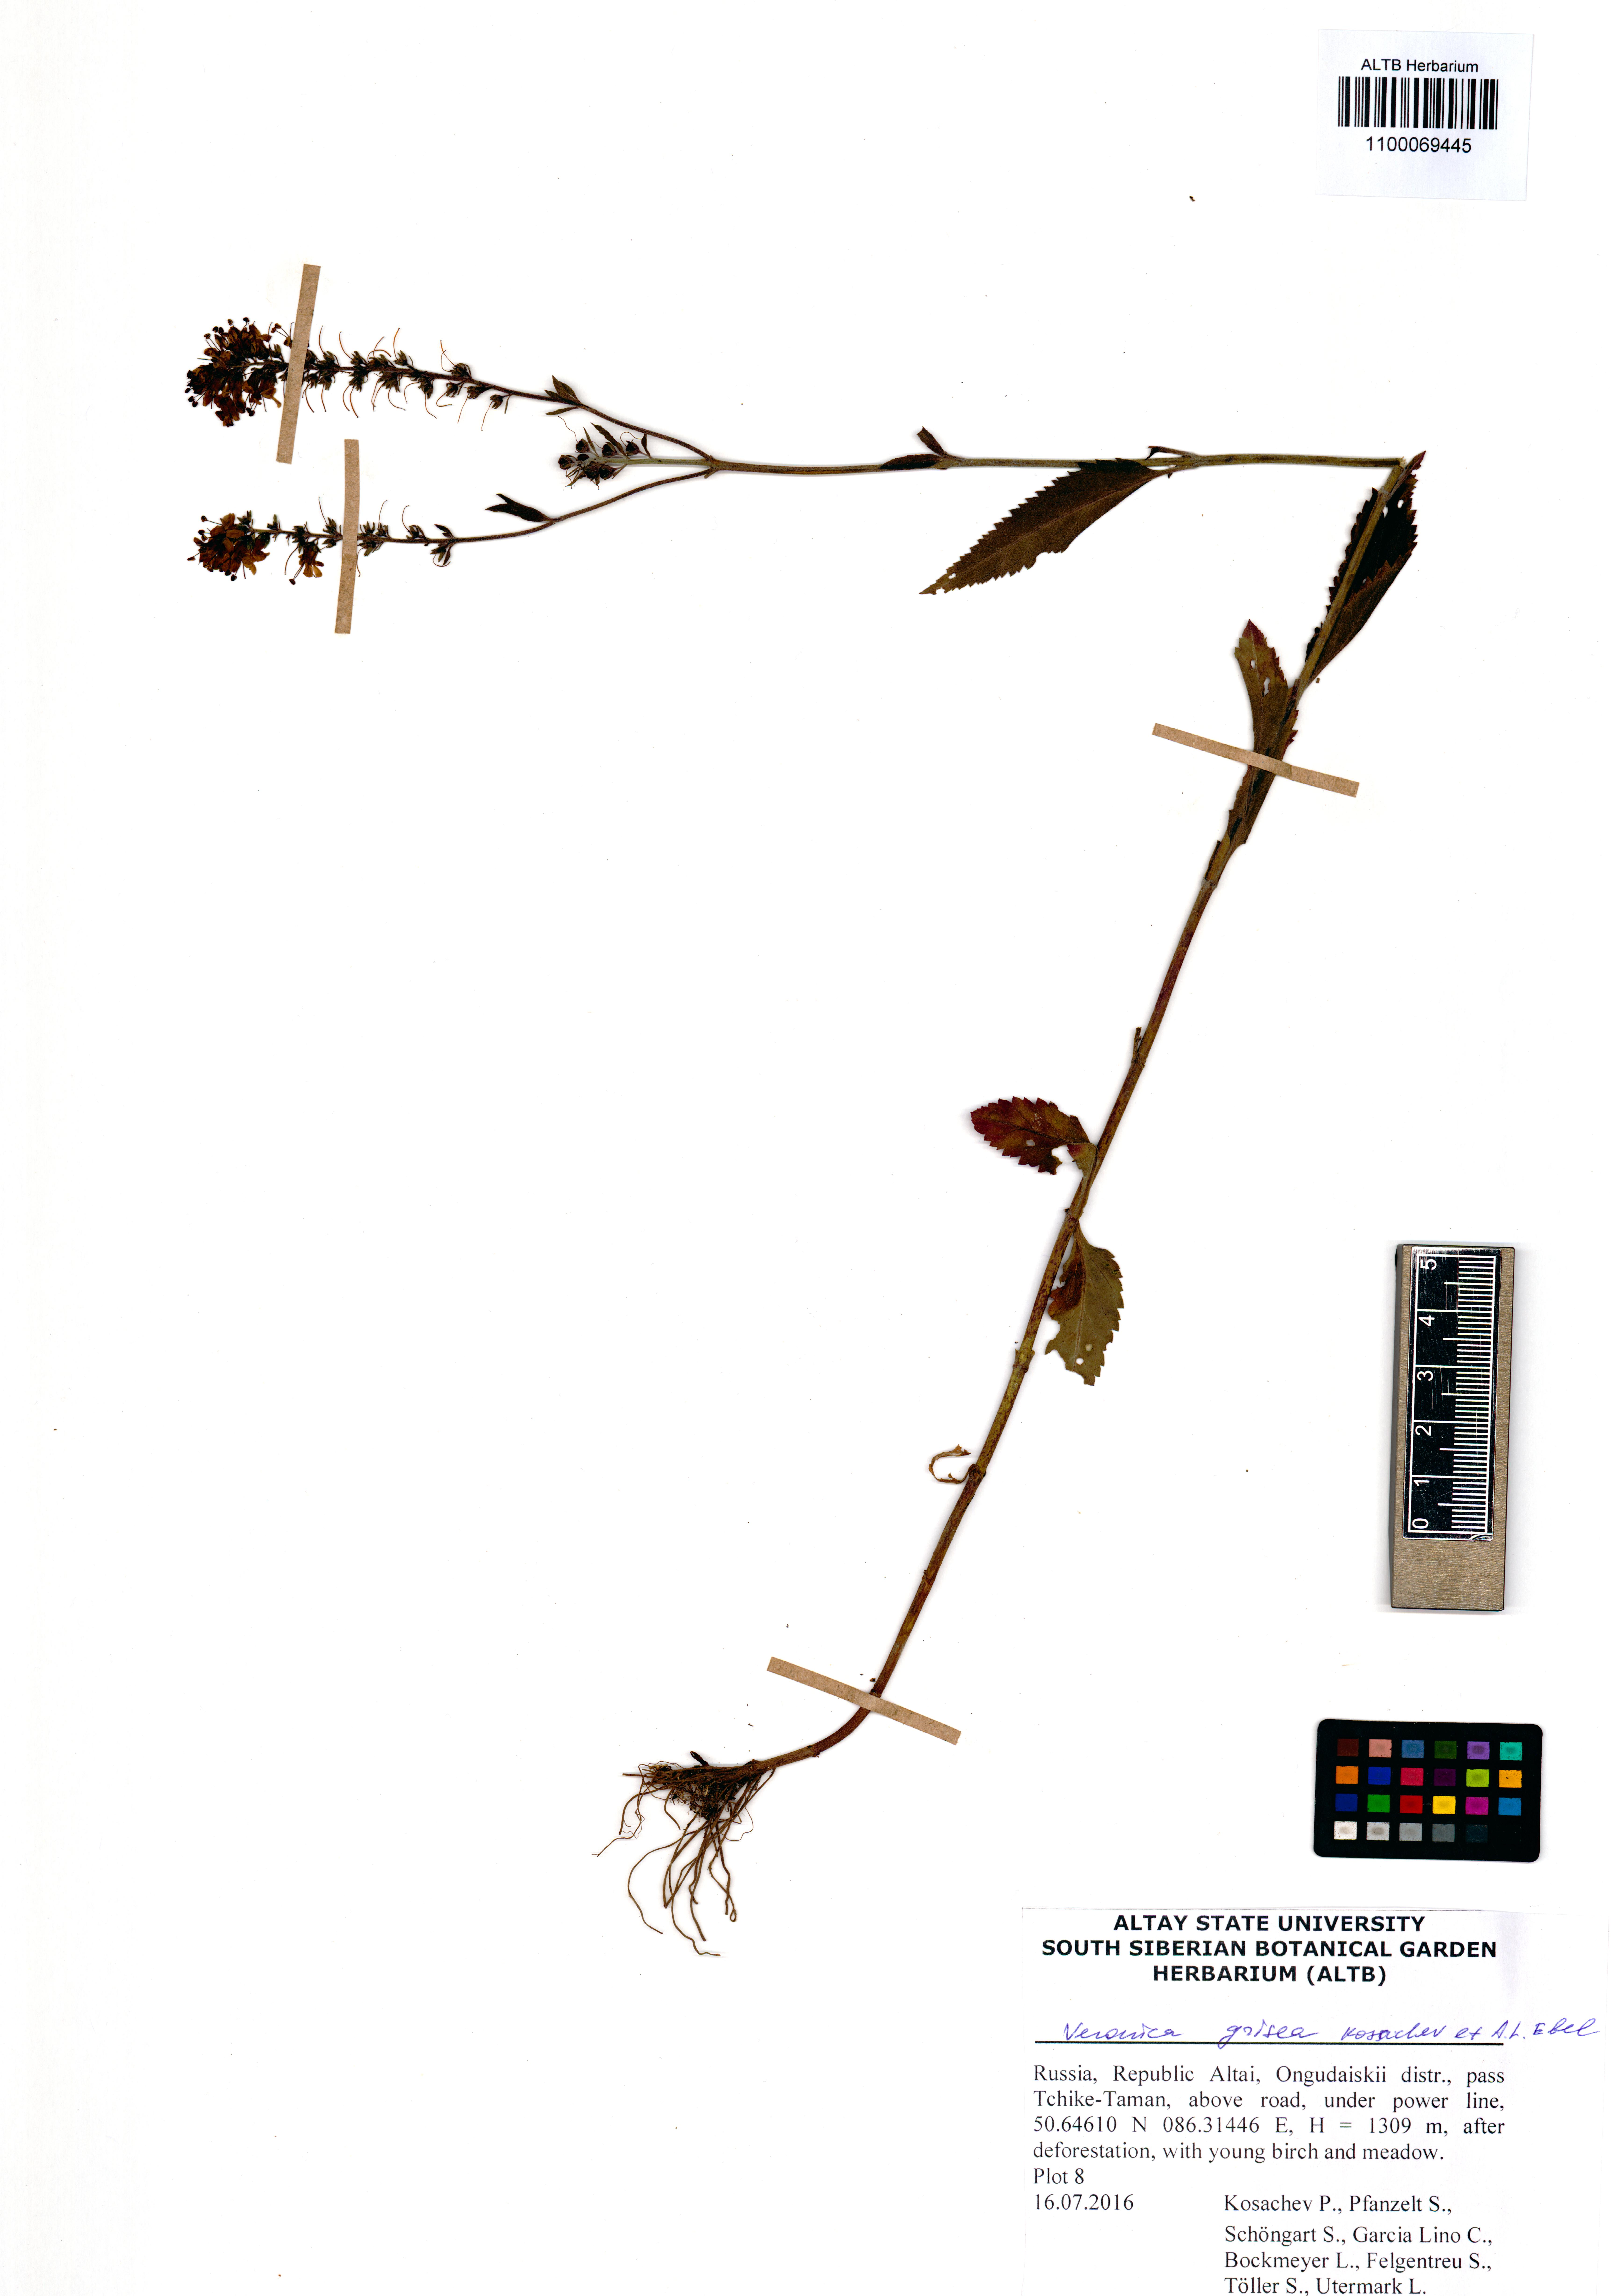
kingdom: Plantae
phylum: Tracheophyta
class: Magnoliopsida
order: Lamiales
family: Plantaginaceae
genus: Veronica
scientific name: Veronica grisea
